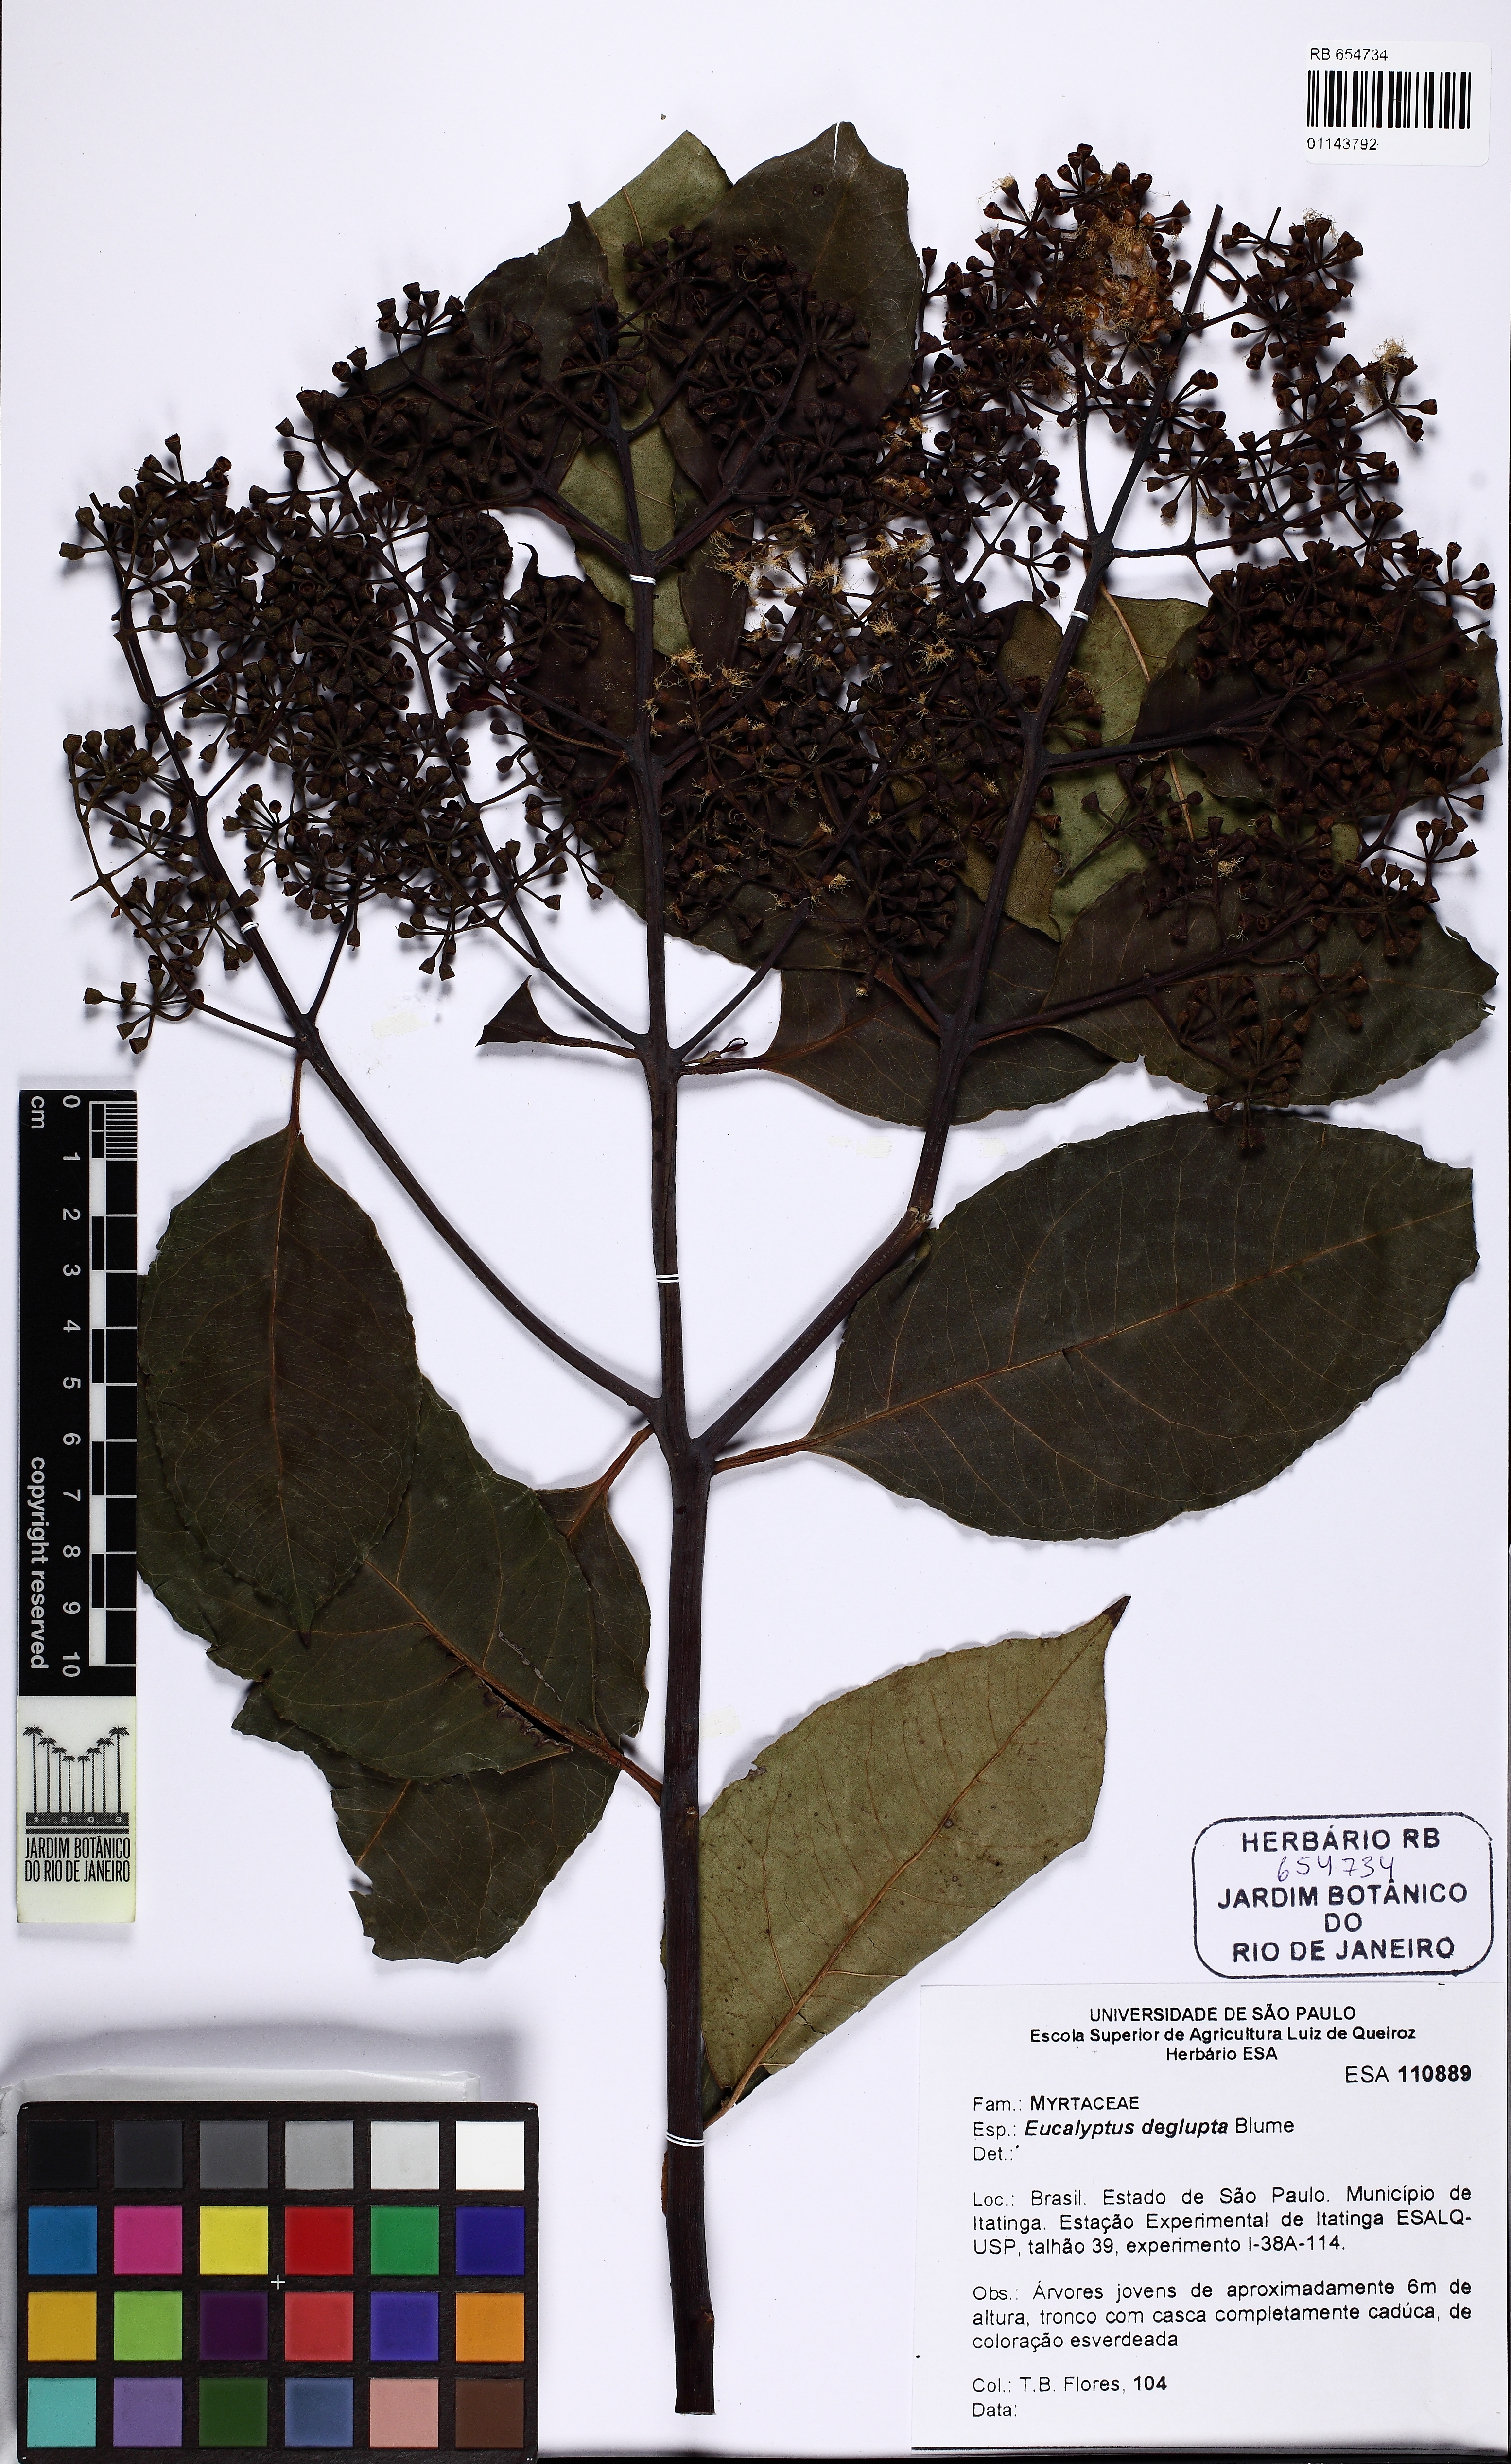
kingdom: Plantae
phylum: Tracheophyta
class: Magnoliopsida
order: Myrtales
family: Myrtaceae
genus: Eucalyptus
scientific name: Eucalyptus deglupta
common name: Mindanao gum
